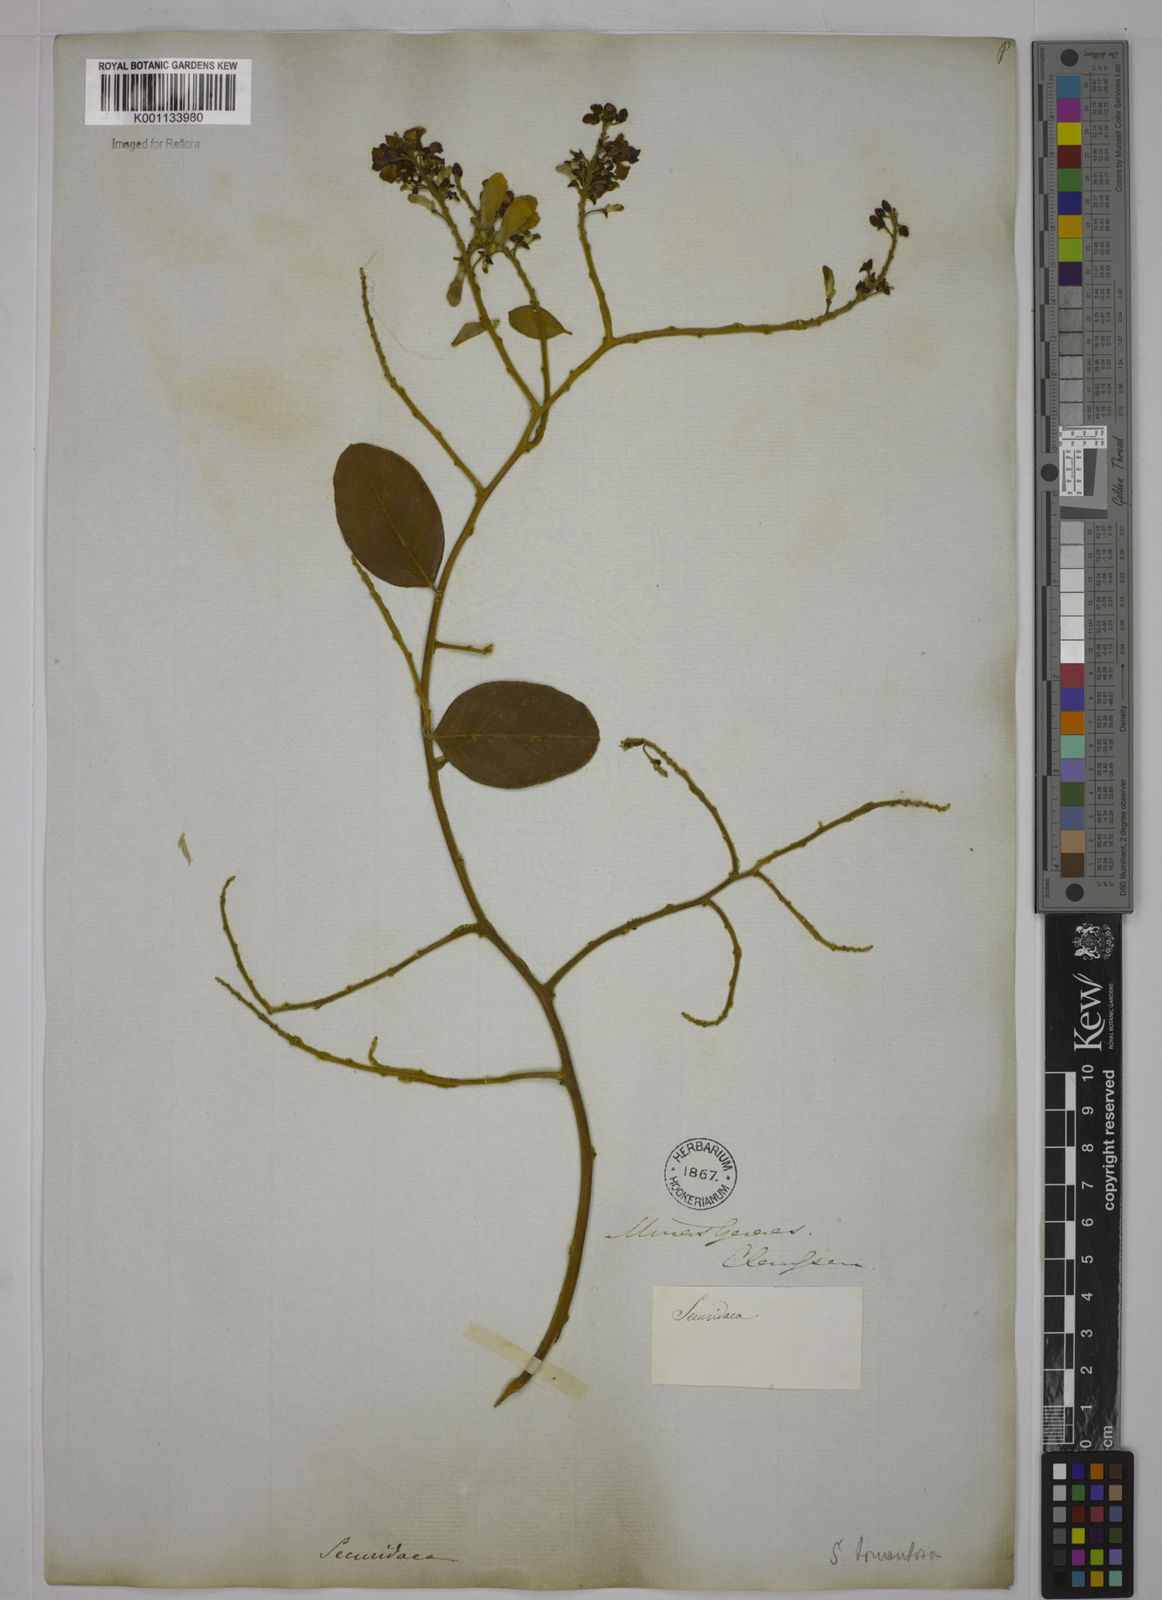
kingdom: Plantae
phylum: Tracheophyta
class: Magnoliopsida
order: Fabales
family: Polygalaceae
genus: Securidaca
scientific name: Securidaca diversifolia
